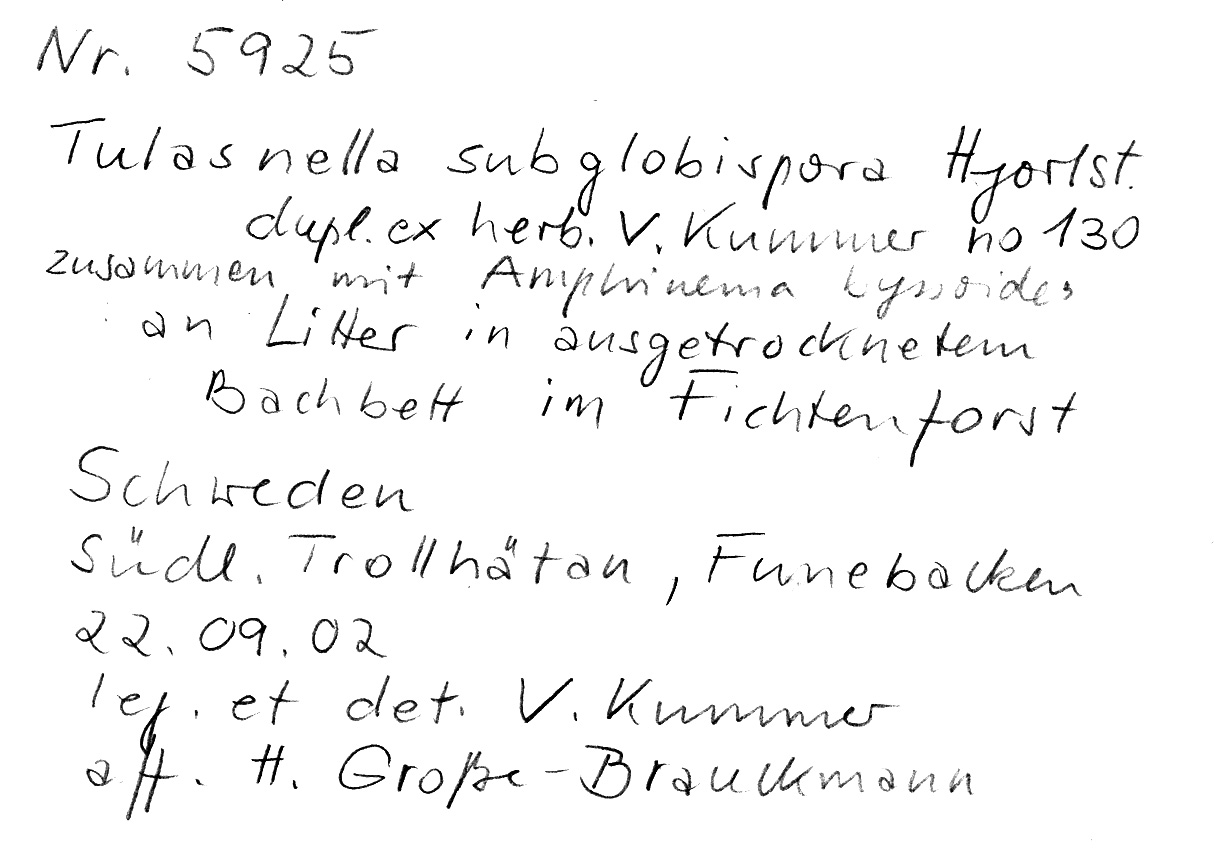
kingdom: Fungi
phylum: Basidiomycota
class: Agaricomycetes
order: Cantharellales
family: Tulasnellaceae
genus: Tulasnella
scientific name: Tulasnella subglobospora
